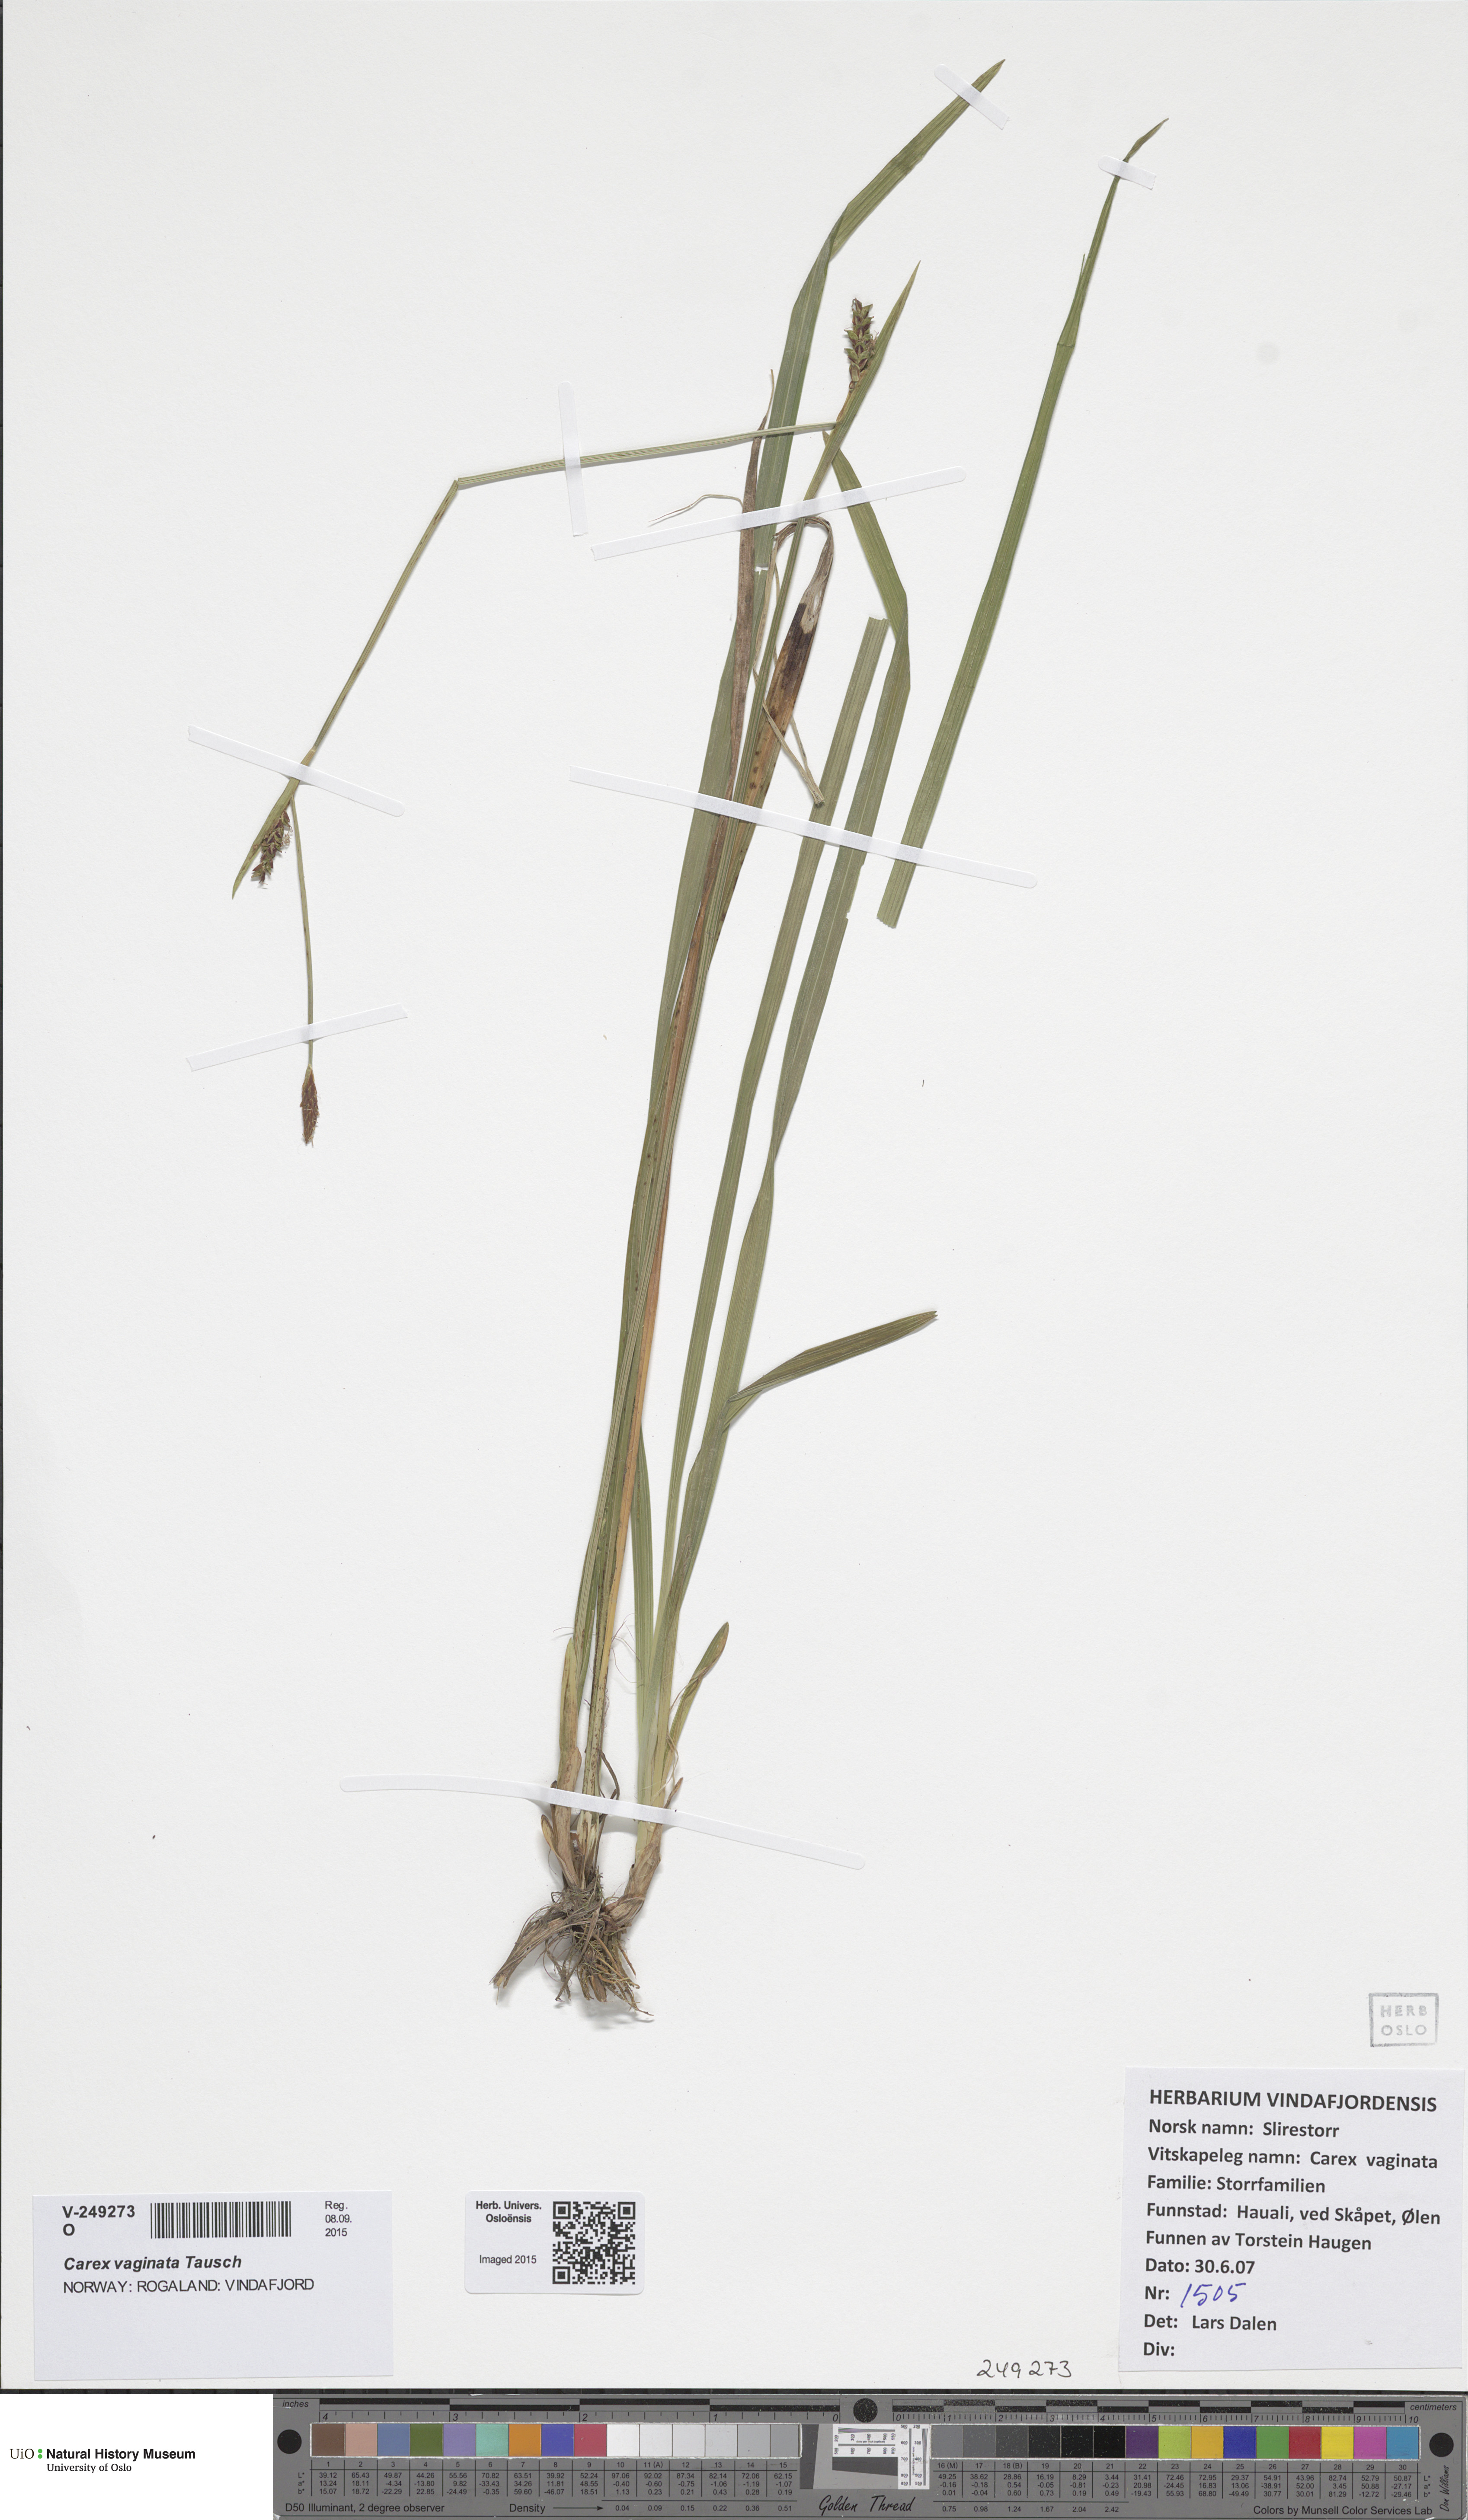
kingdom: Plantae
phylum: Tracheophyta
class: Liliopsida
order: Poales
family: Cyperaceae
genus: Carex
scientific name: Carex vaginata
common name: Sheathed sedge
